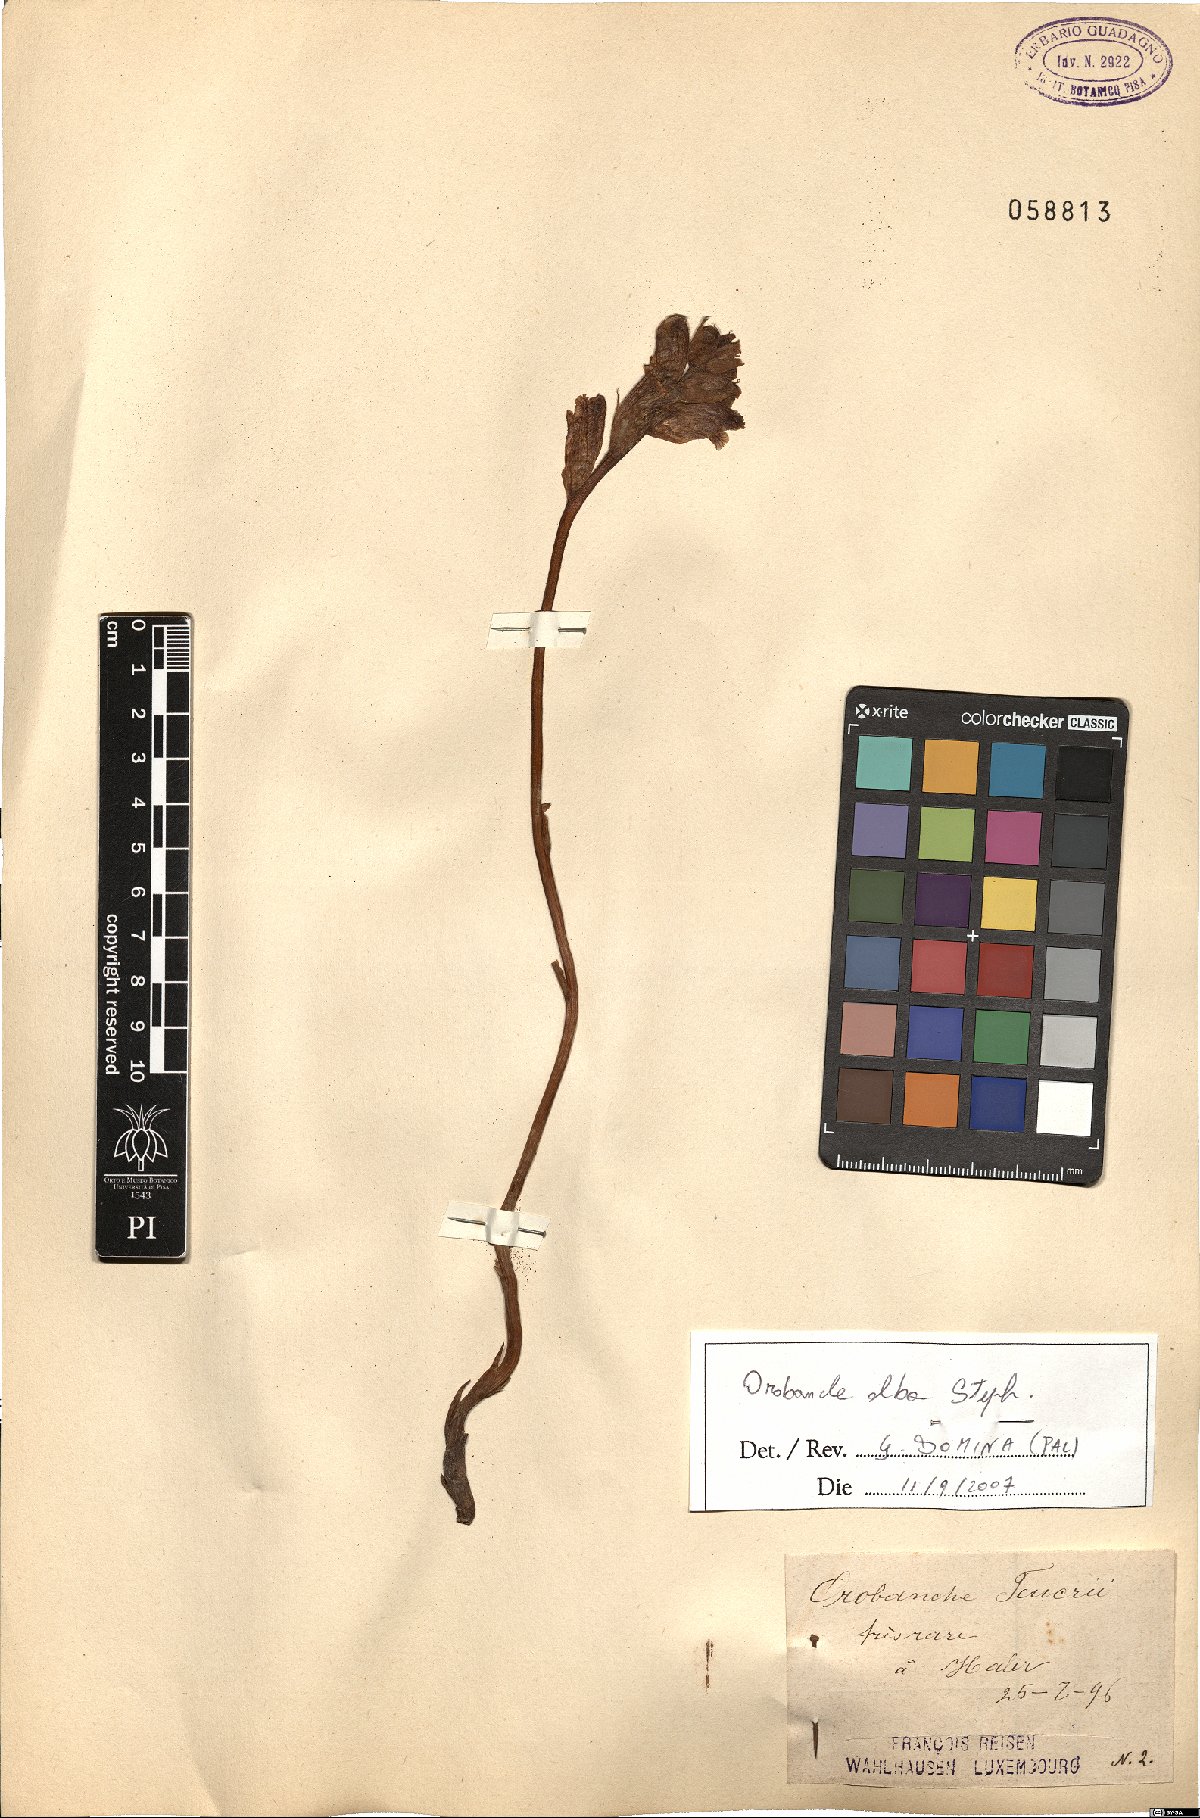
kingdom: Plantae
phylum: Tracheophyta
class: Magnoliopsida
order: Lamiales
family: Orobanchaceae
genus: Orobanche
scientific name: Orobanche alba
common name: Thyme broomrape
